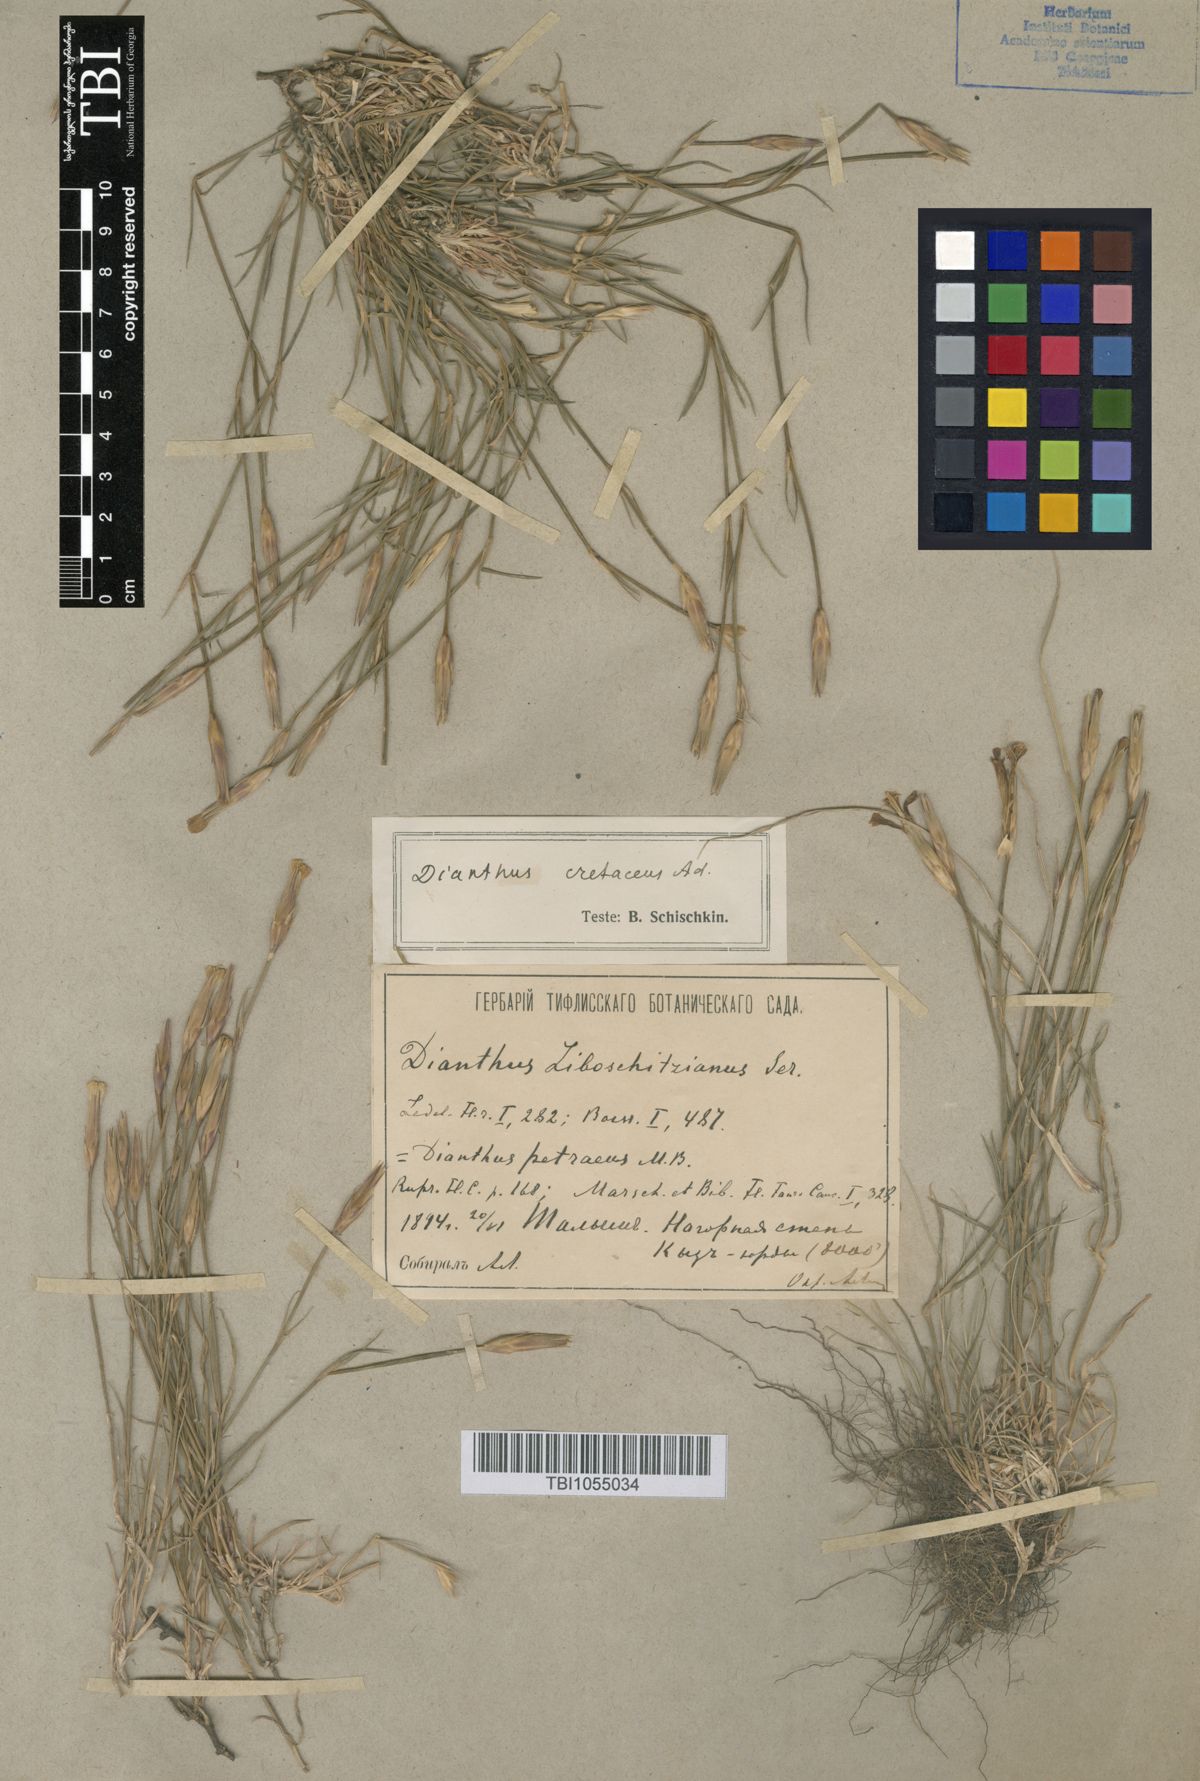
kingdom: Plantae
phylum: Tracheophyta
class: Magnoliopsida
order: Caryophyllales
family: Caryophyllaceae
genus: Dianthus
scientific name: Dianthus cretaceus
